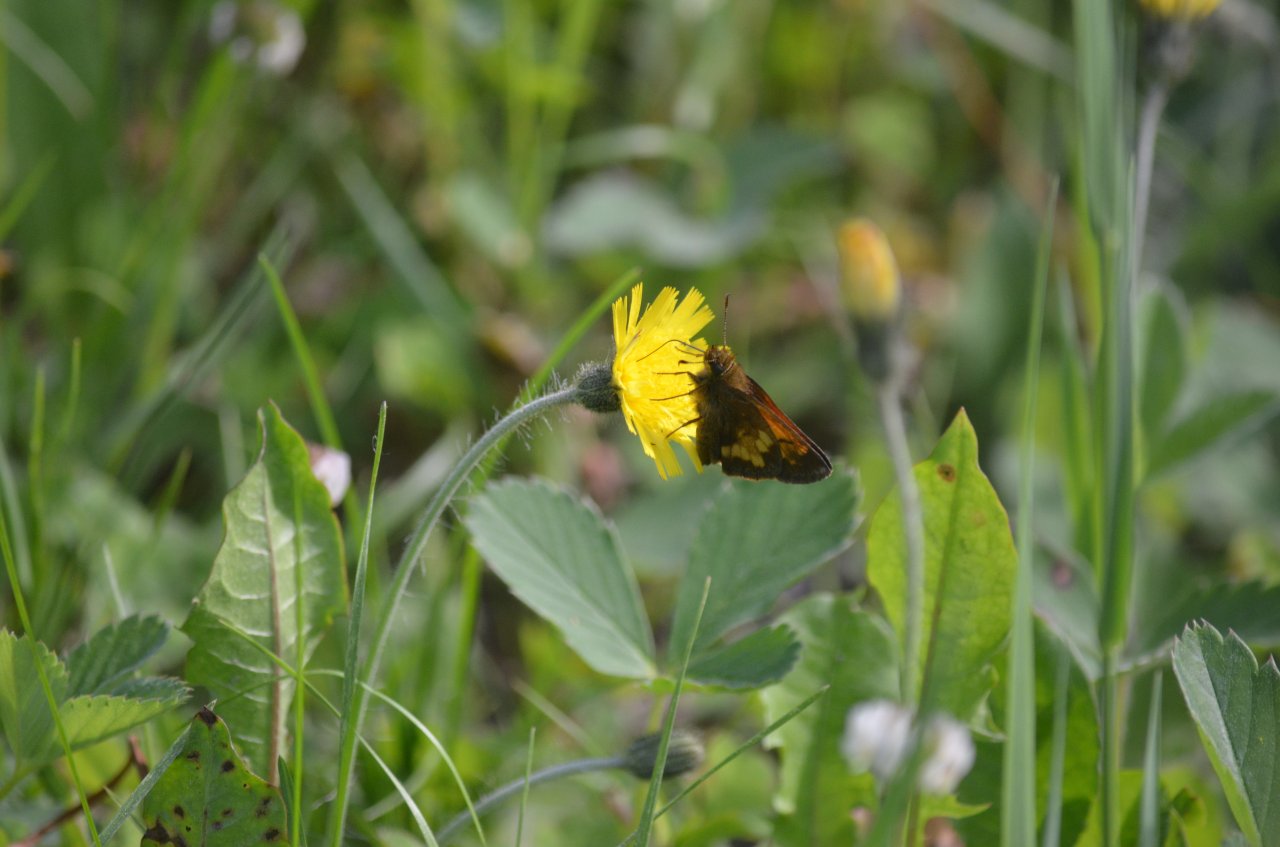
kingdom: Animalia
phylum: Arthropoda
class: Insecta
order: Lepidoptera
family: Hesperiidae
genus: Lon
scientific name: Lon hobomok
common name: Hobomok Skipper
